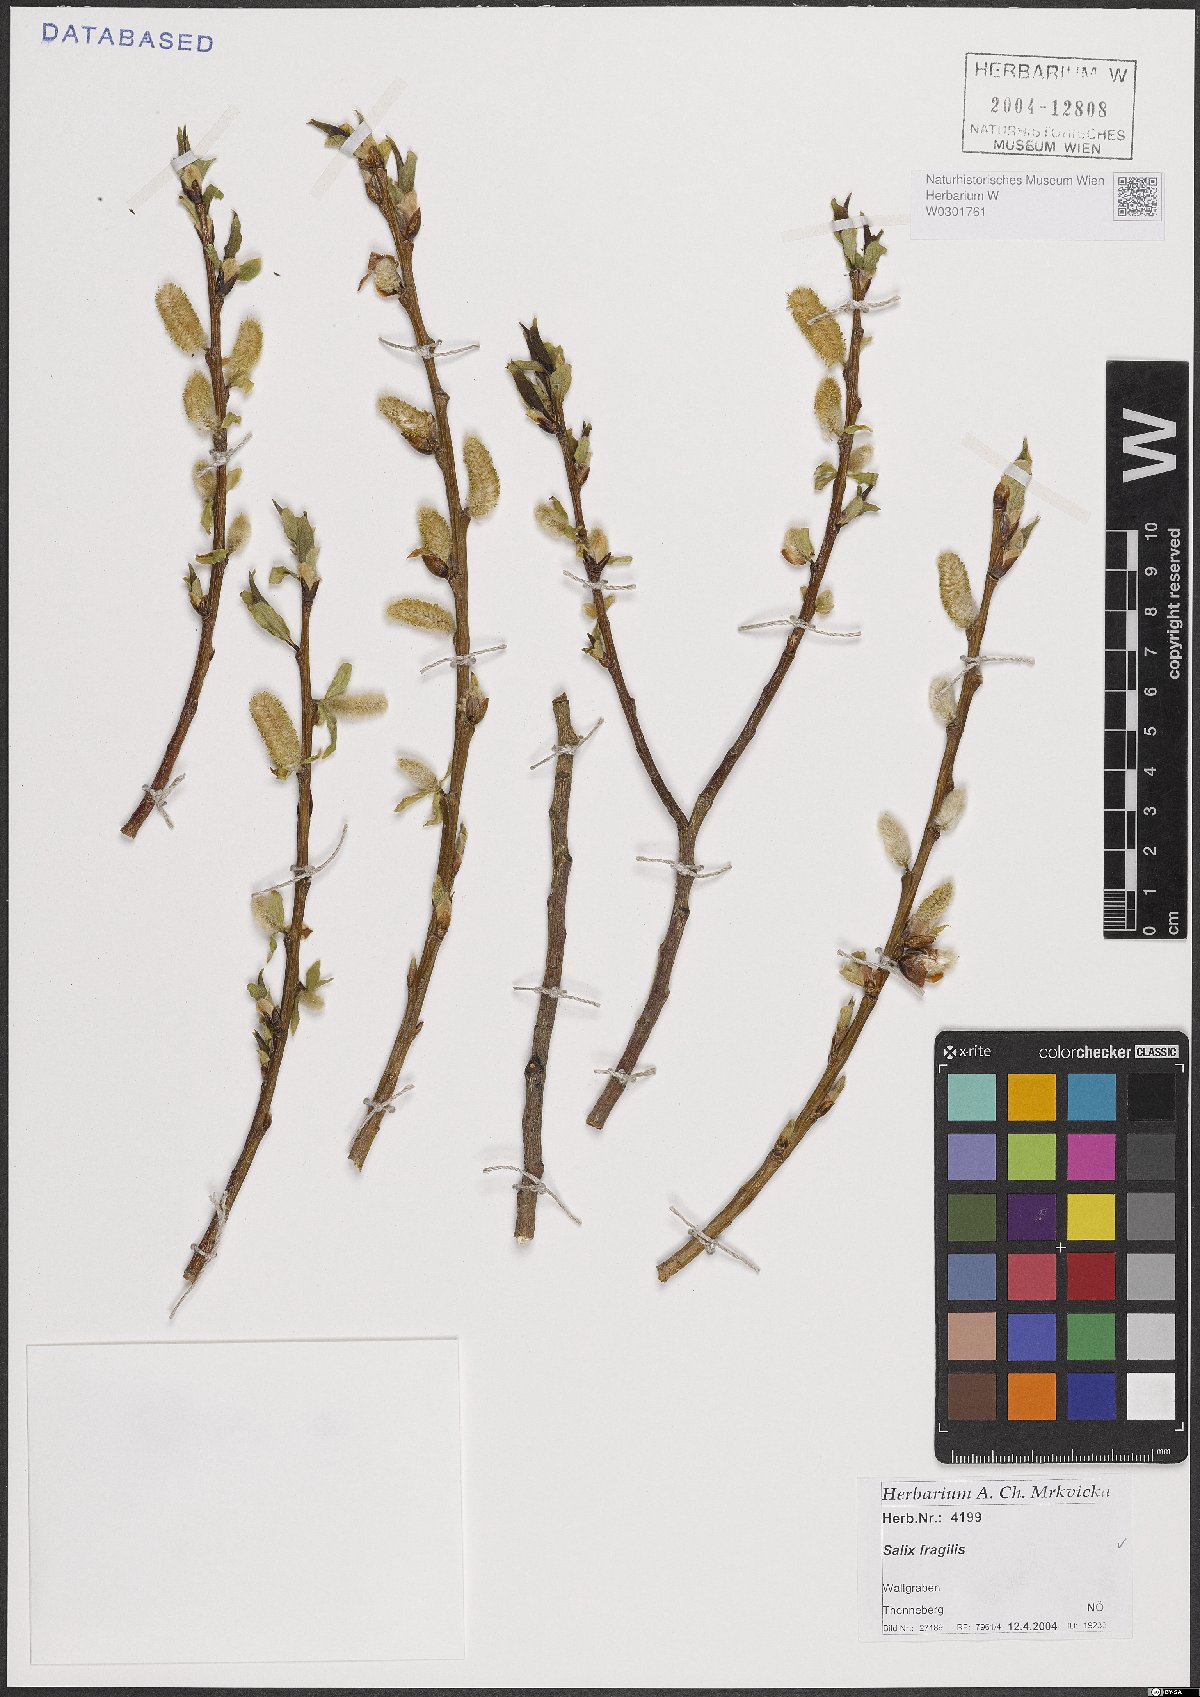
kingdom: Plantae
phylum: Tracheophyta
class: Magnoliopsida
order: Malpighiales
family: Salicaceae
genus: Salix
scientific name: Salix fragilis
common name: Crack willow
